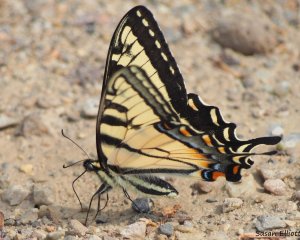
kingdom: Animalia
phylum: Arthropoda
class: Insecta
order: Lepidoptera
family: Papilionidae
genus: Pterourus
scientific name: Pterourus canadensis
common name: Canadian Tiger Swallowtail
